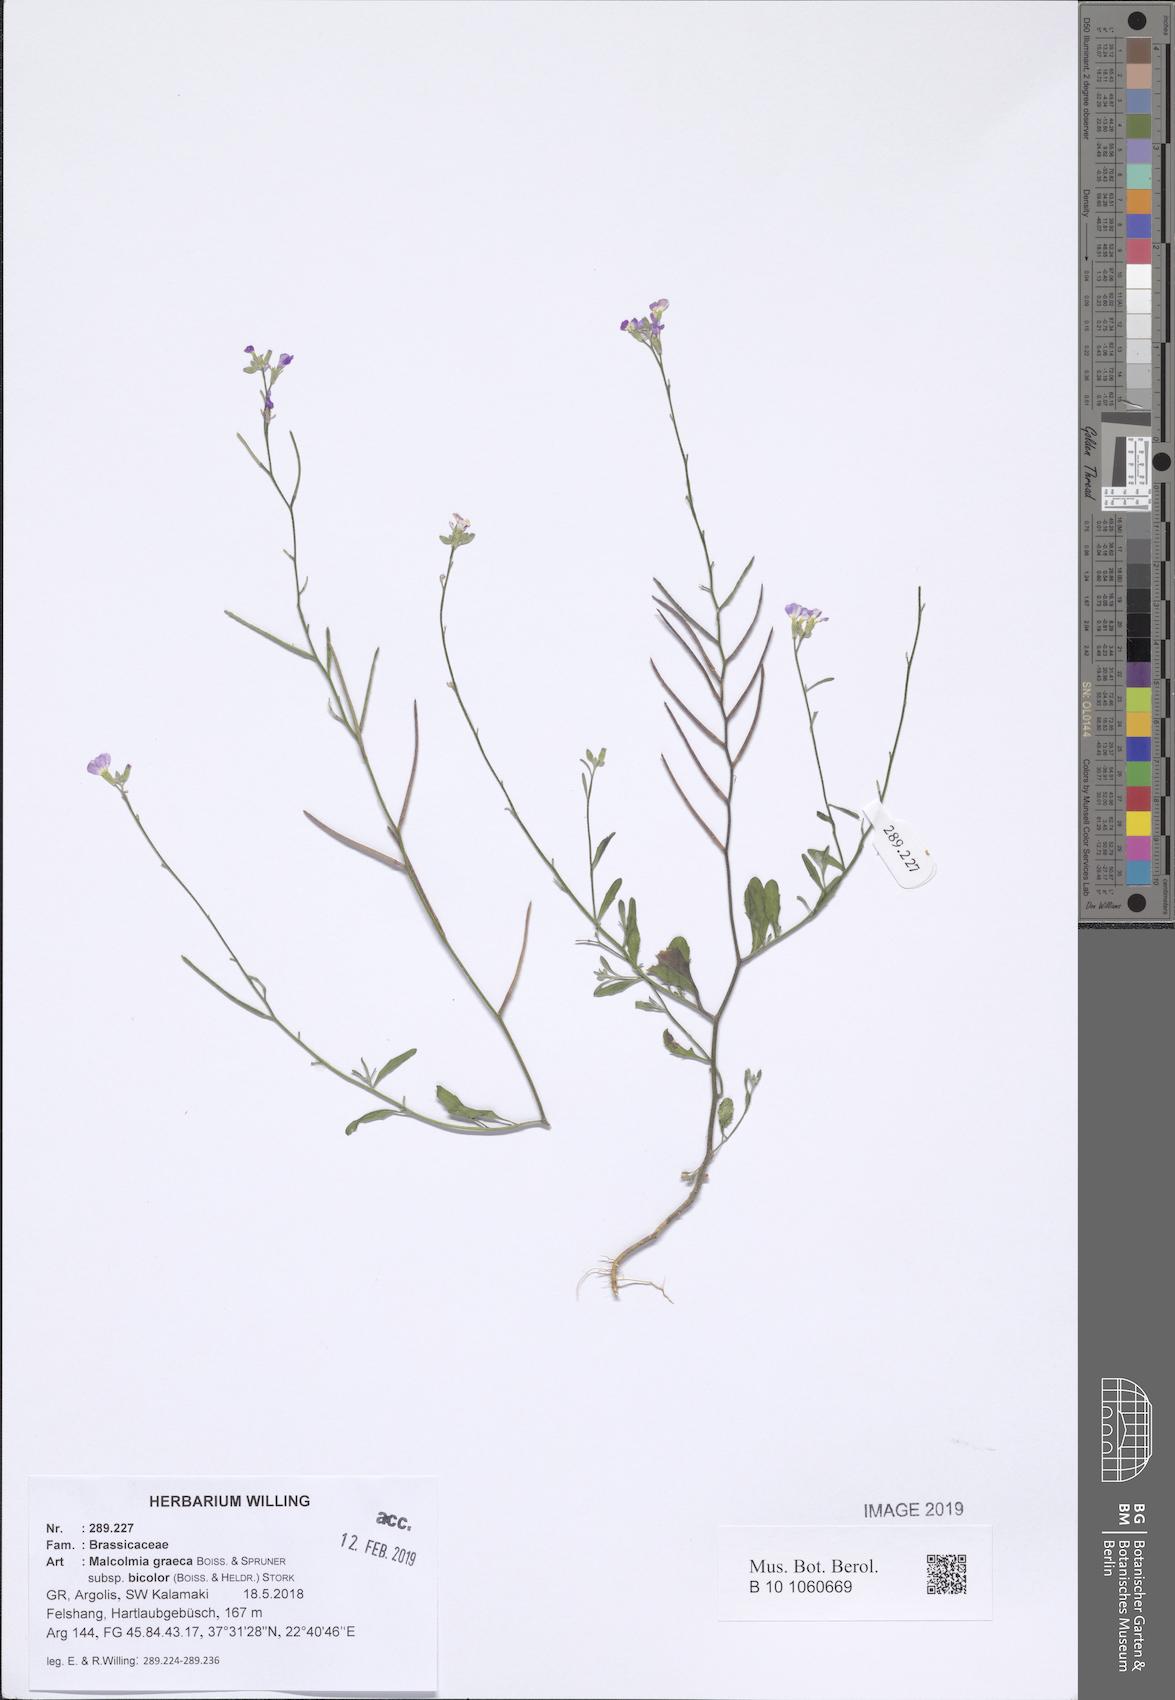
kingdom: Plantae
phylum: Tracheophyta
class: Magnoliopsida
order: Brassicales
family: Brassicaceae
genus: Malcolmia
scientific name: Malcolmia graeca
